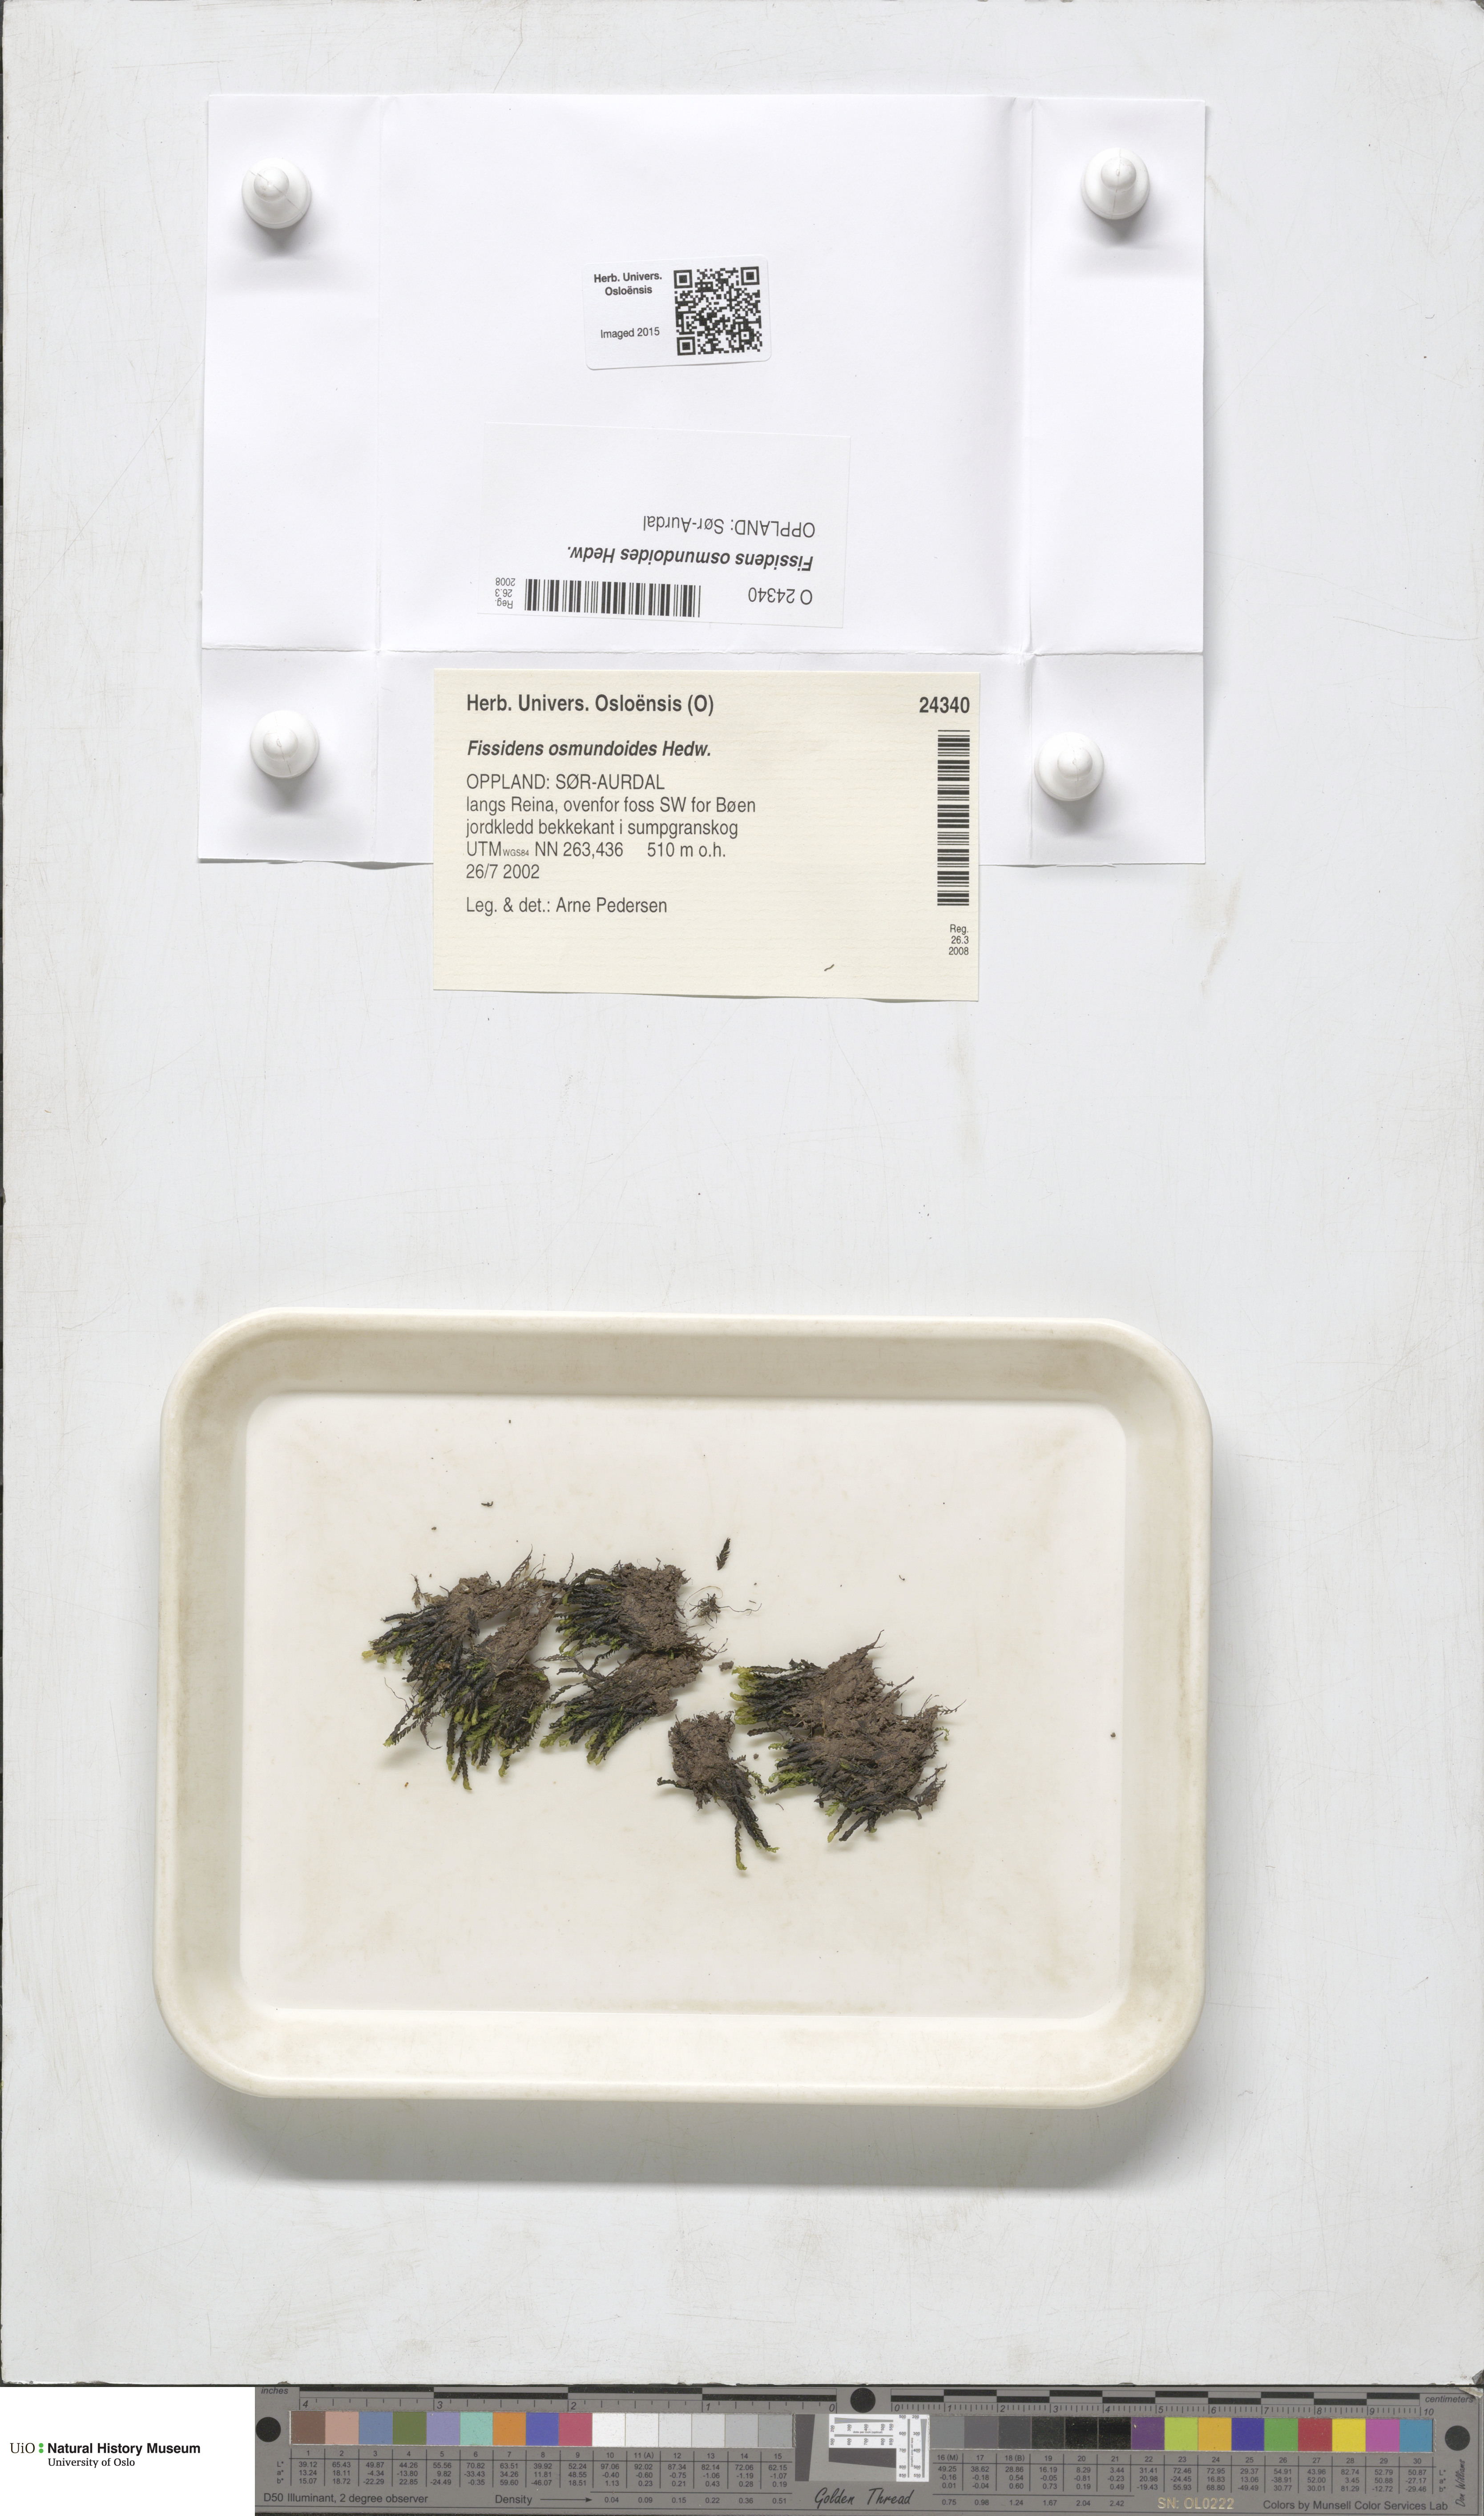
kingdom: Plantae
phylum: Bryophyta
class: Bryopsida
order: Dicranales
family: Fissidentaceae
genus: Fissidens
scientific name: Fissidens osmundoides
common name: Purple-stalked pocket moss
